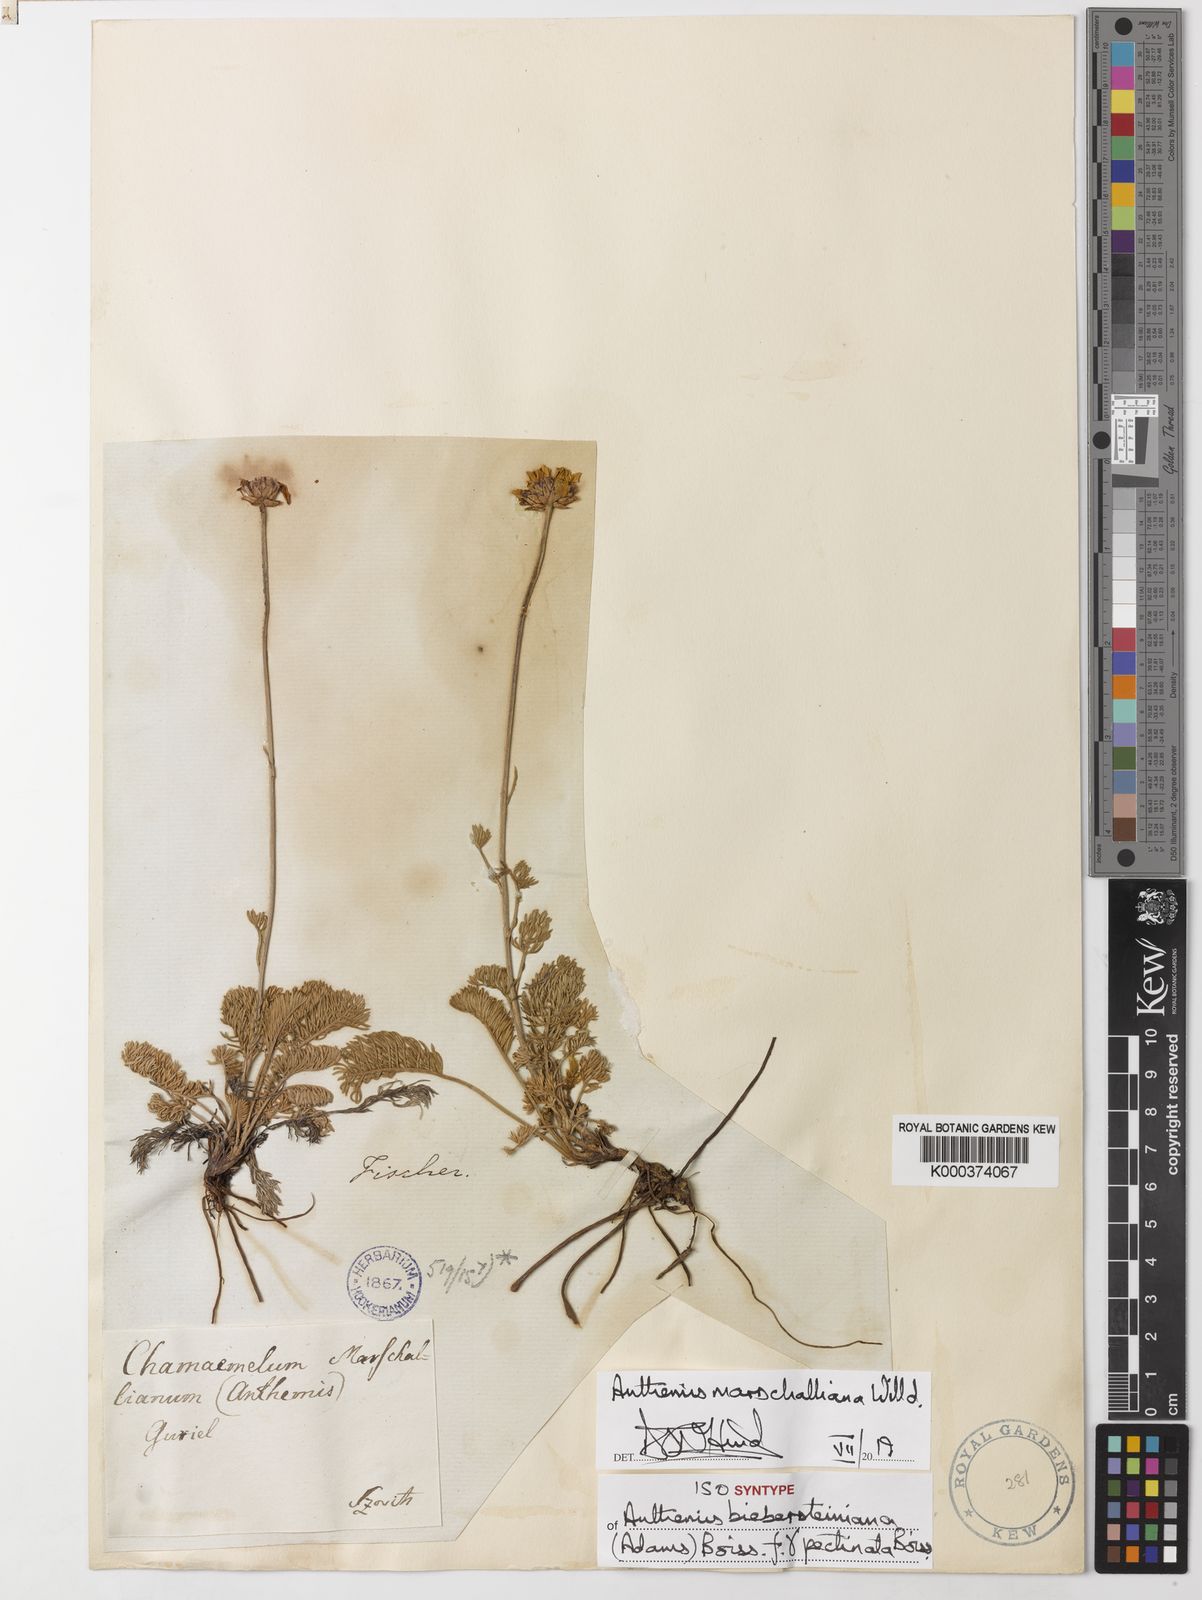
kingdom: Plantae
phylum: Tracheophyta
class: Magnoliopsida
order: Asterales
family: Asteraceae
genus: Archanthemis
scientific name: Archanthemis marschalliana
